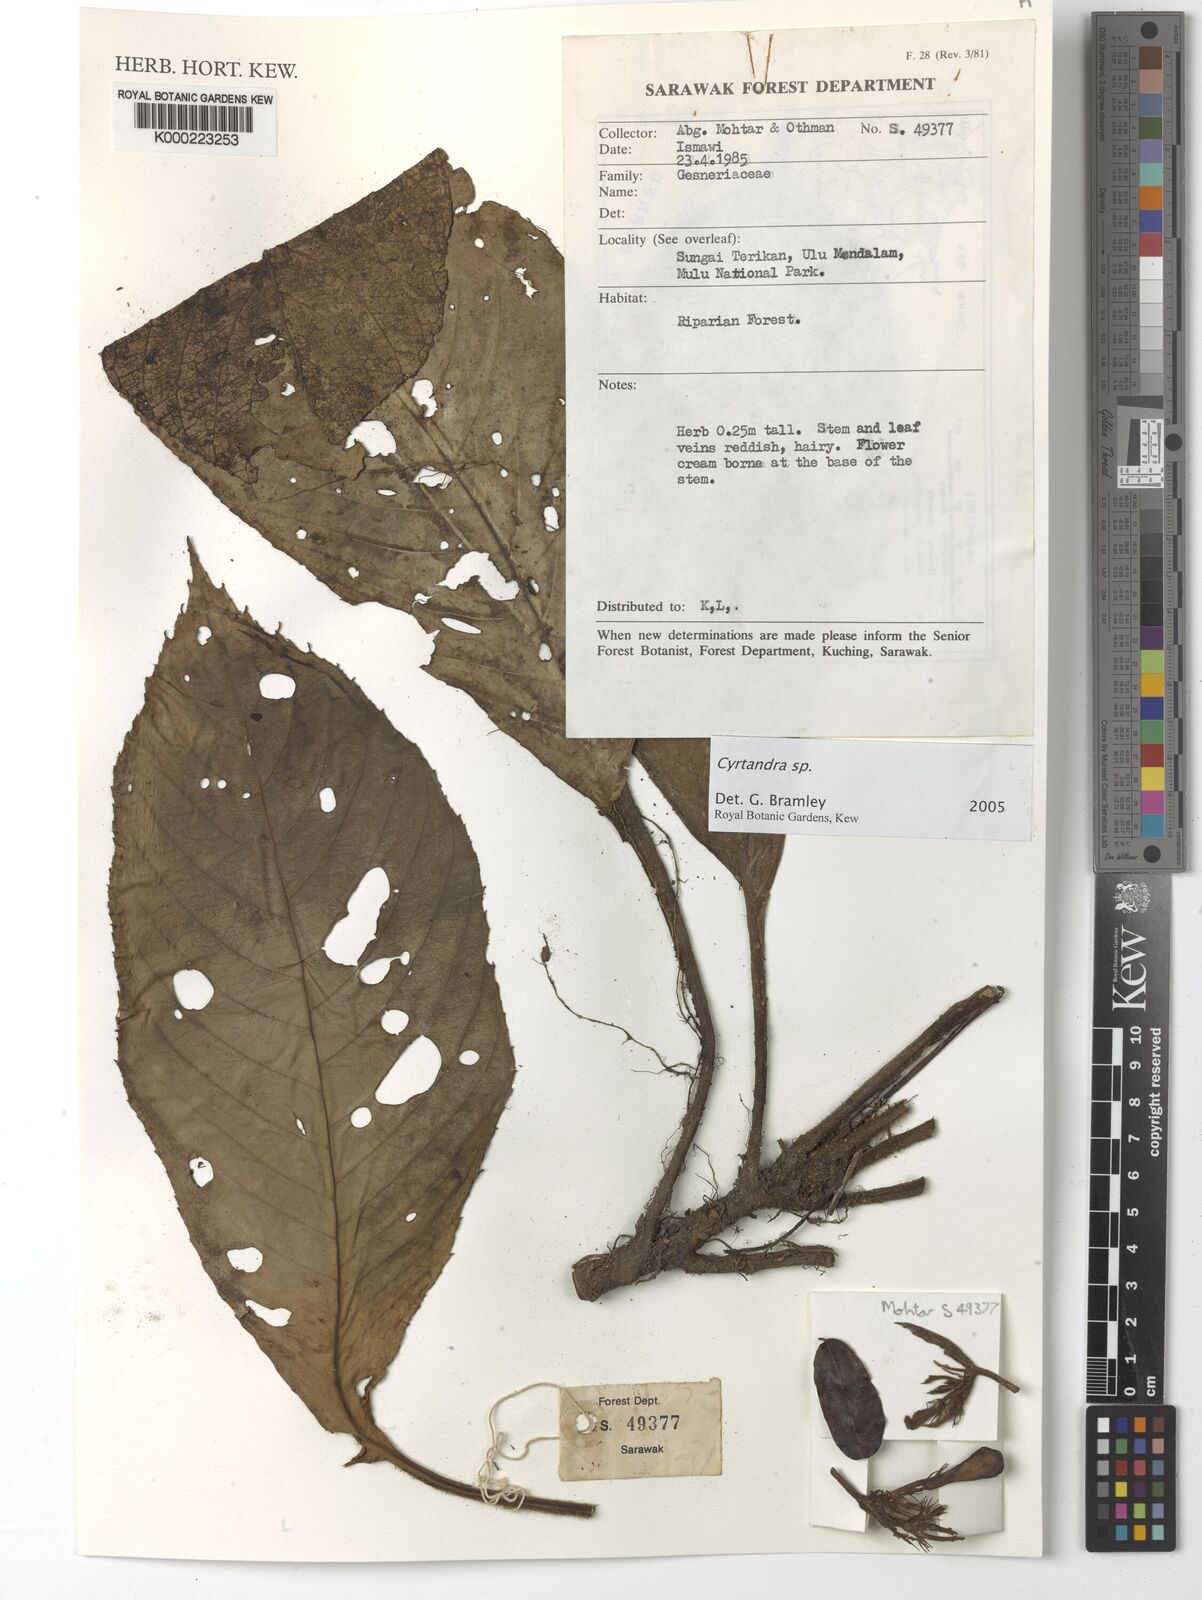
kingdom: Plantae
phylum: Tracheophyta
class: Magnoliopsida
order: Lamiales
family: Gesneriaceae
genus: Cyrtandra
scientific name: Cyrtandra
